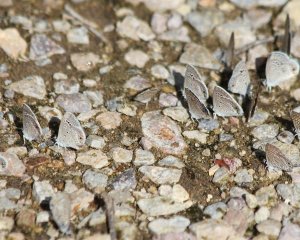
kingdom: Animalia
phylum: Arthropoda
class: Insecta
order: Lepidoptera
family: Lycaenidae
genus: Echinargus
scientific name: Echinargus isola
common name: Reakirt's Blue
